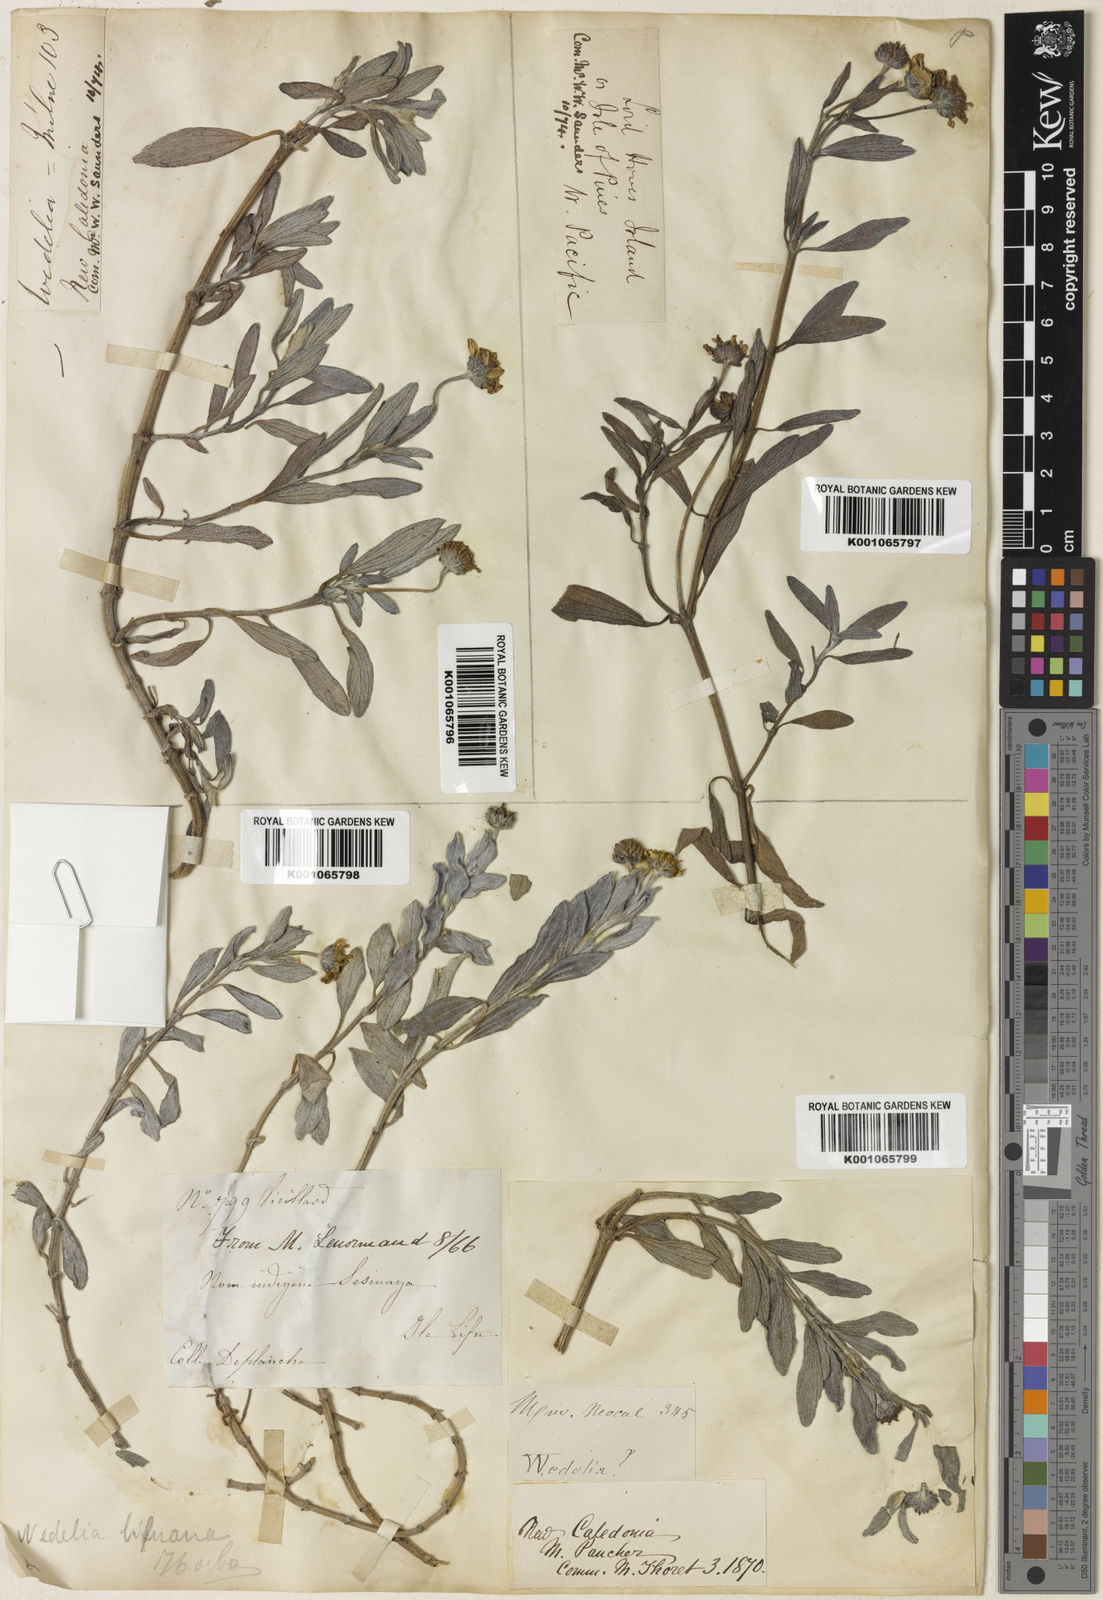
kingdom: Plantae
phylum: Tracheophyta
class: Magnoliopsida
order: Asterales
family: Asteraceae
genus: Wollastonia
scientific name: Wollastonia biflora
